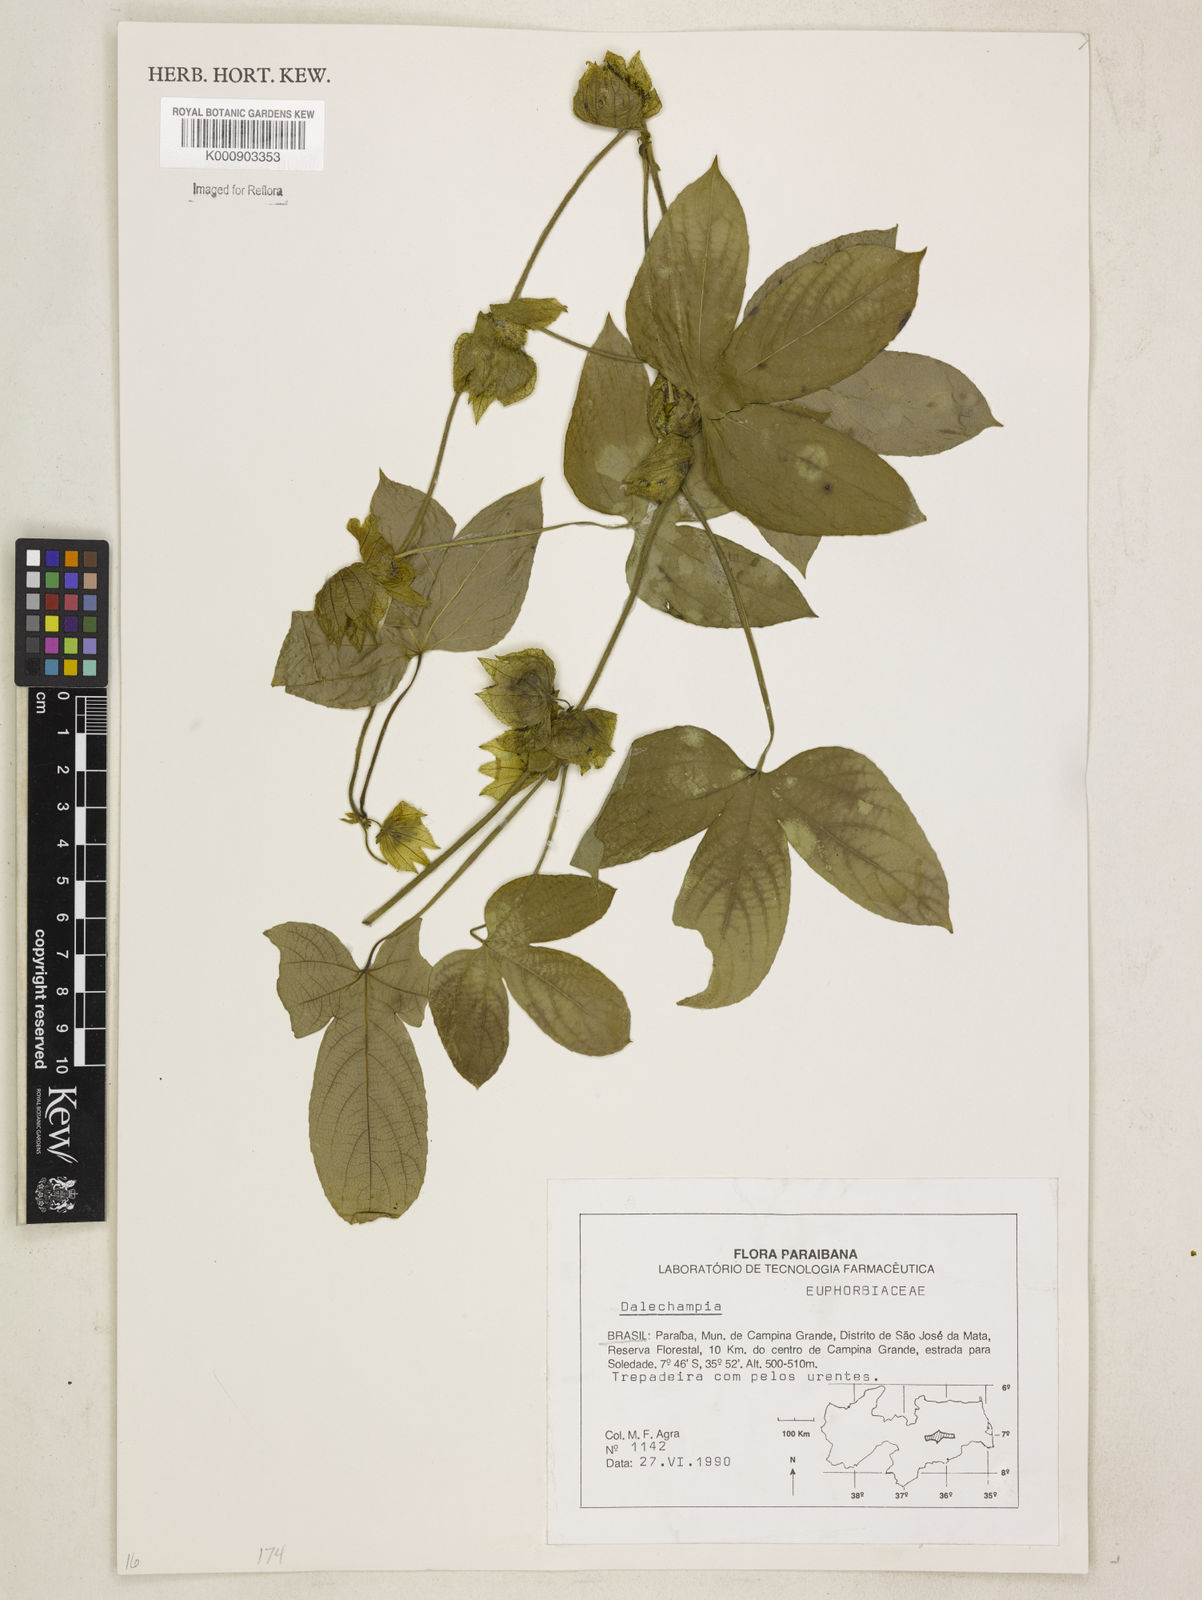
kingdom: Plantae
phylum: Tracheophyta
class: Magnoliopsida
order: Malpighiales
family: Euphorbiaceae
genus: Dalechampia
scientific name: Dalechampia
